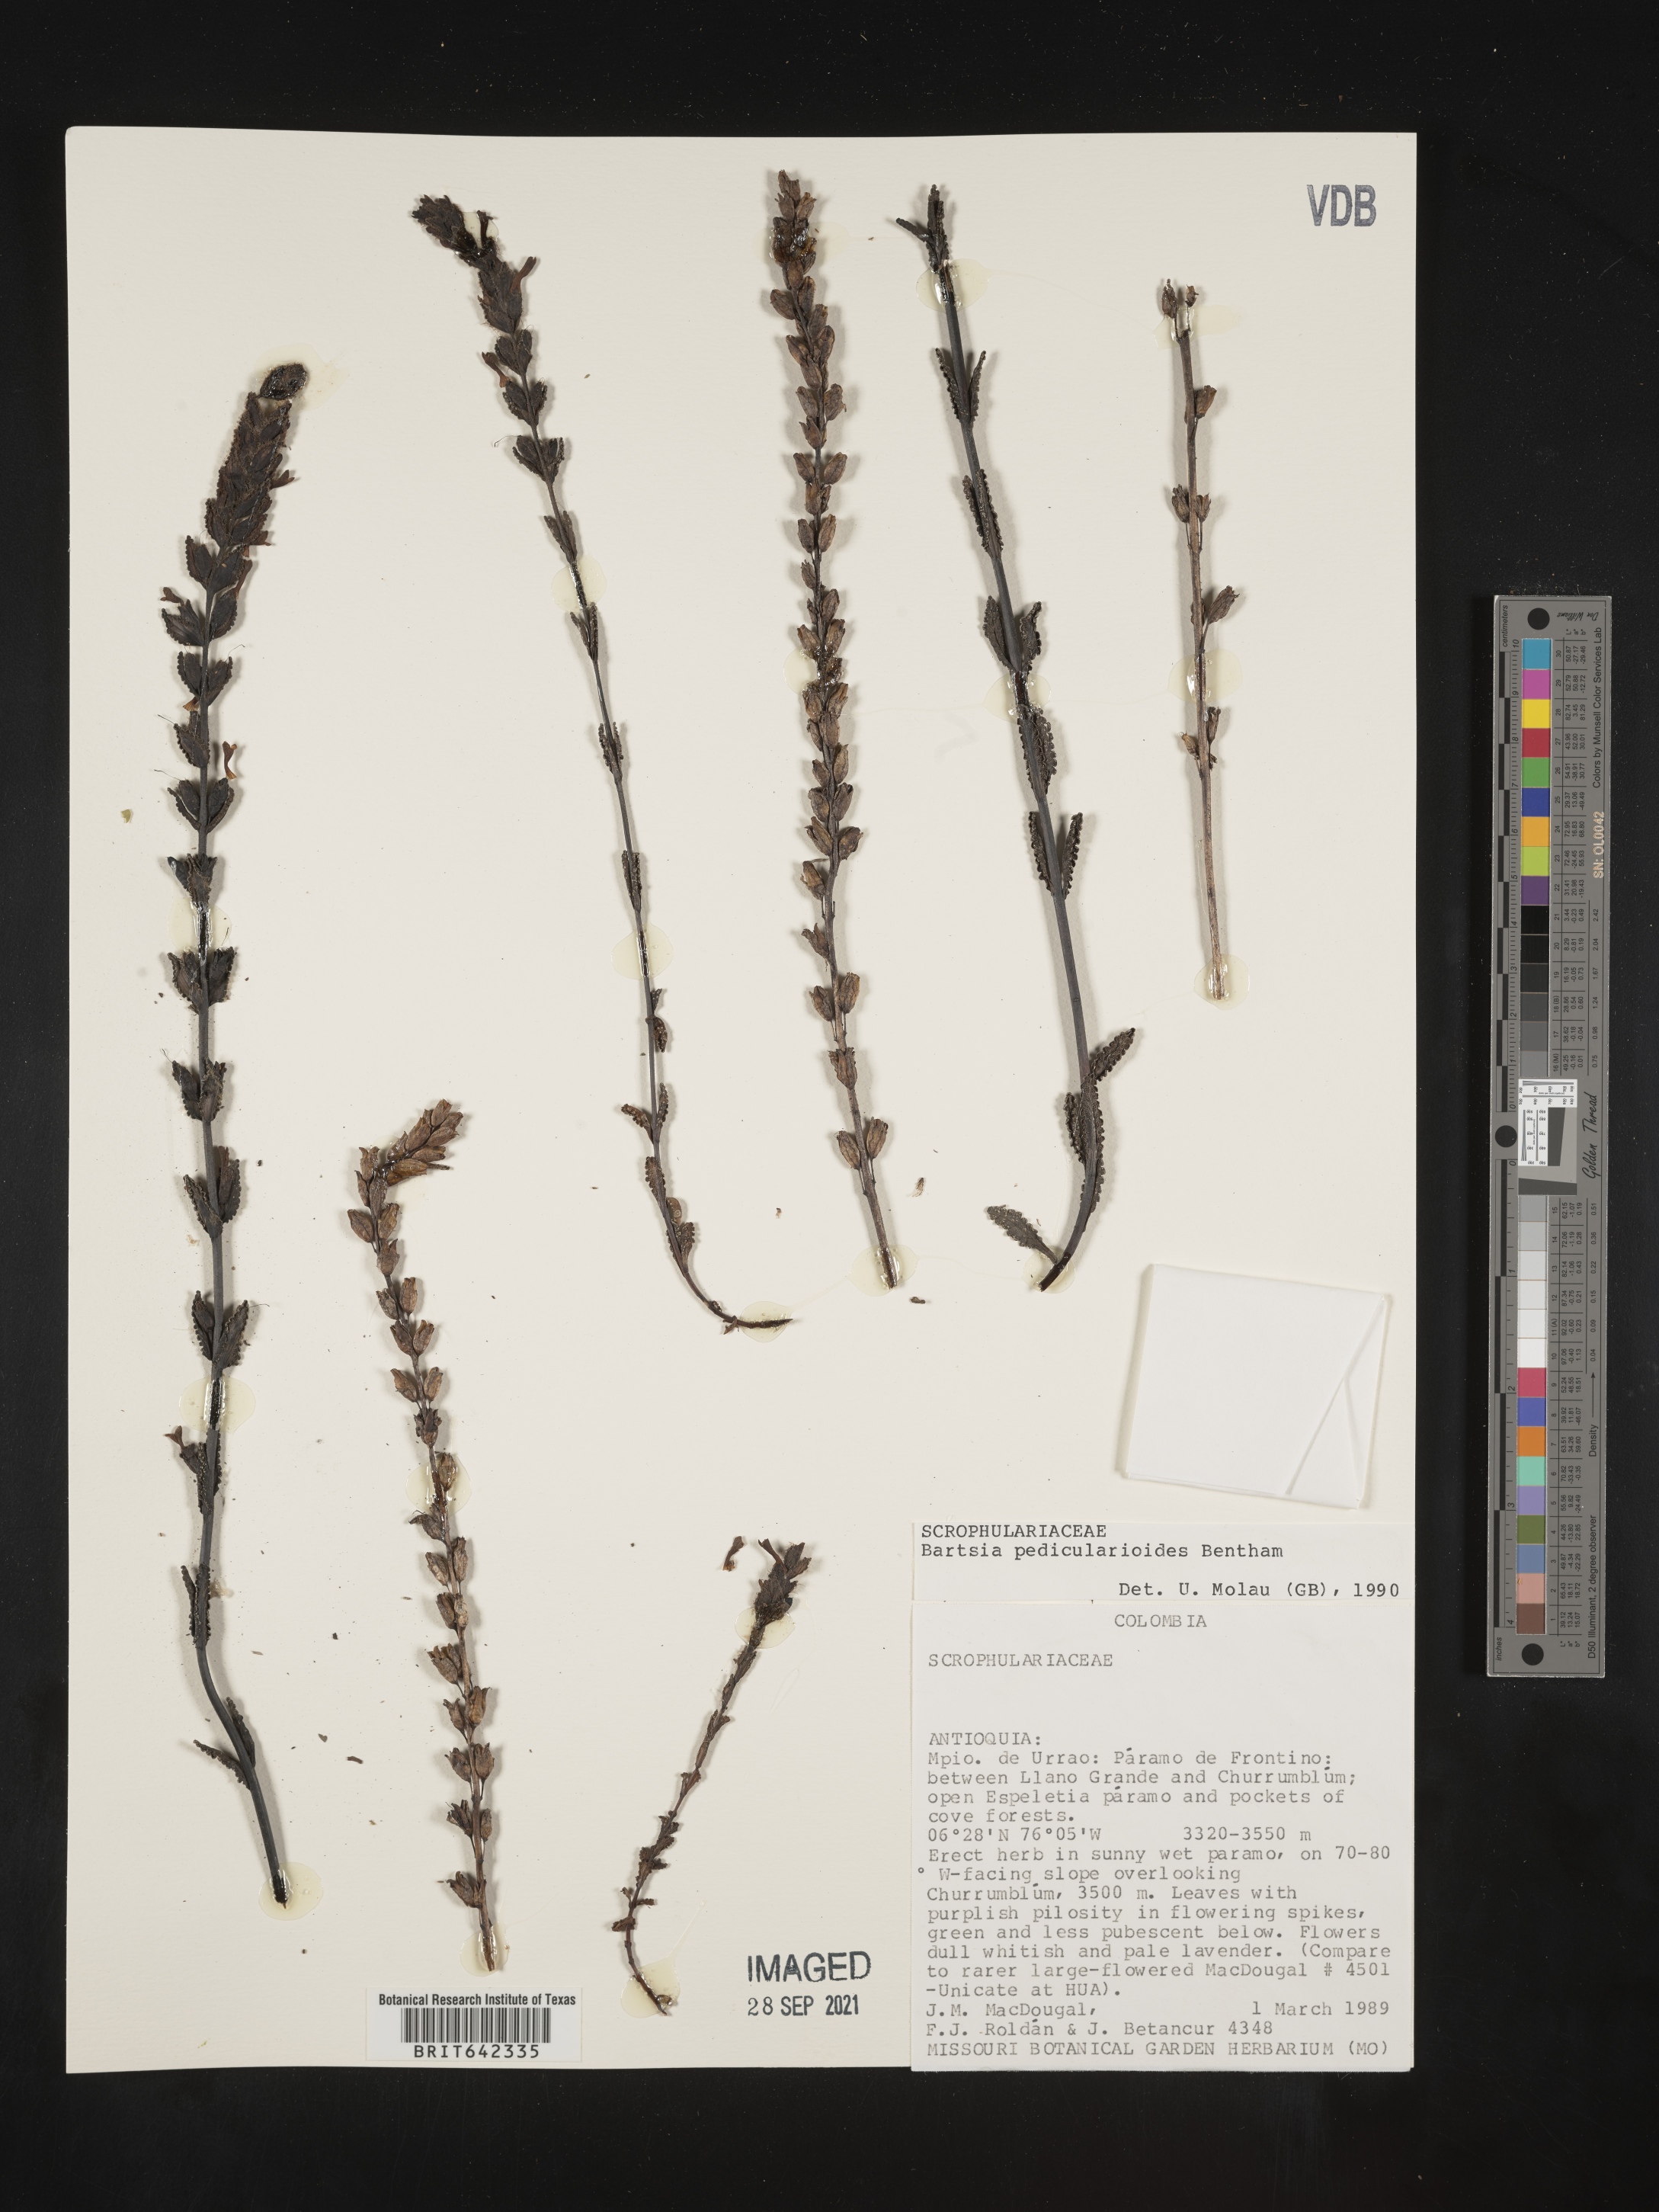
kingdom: Plantae
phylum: Tracheophyta
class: Magnoliopsida
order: Lamiales
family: Orobanchaceae
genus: Bartsia
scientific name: Bartsia
